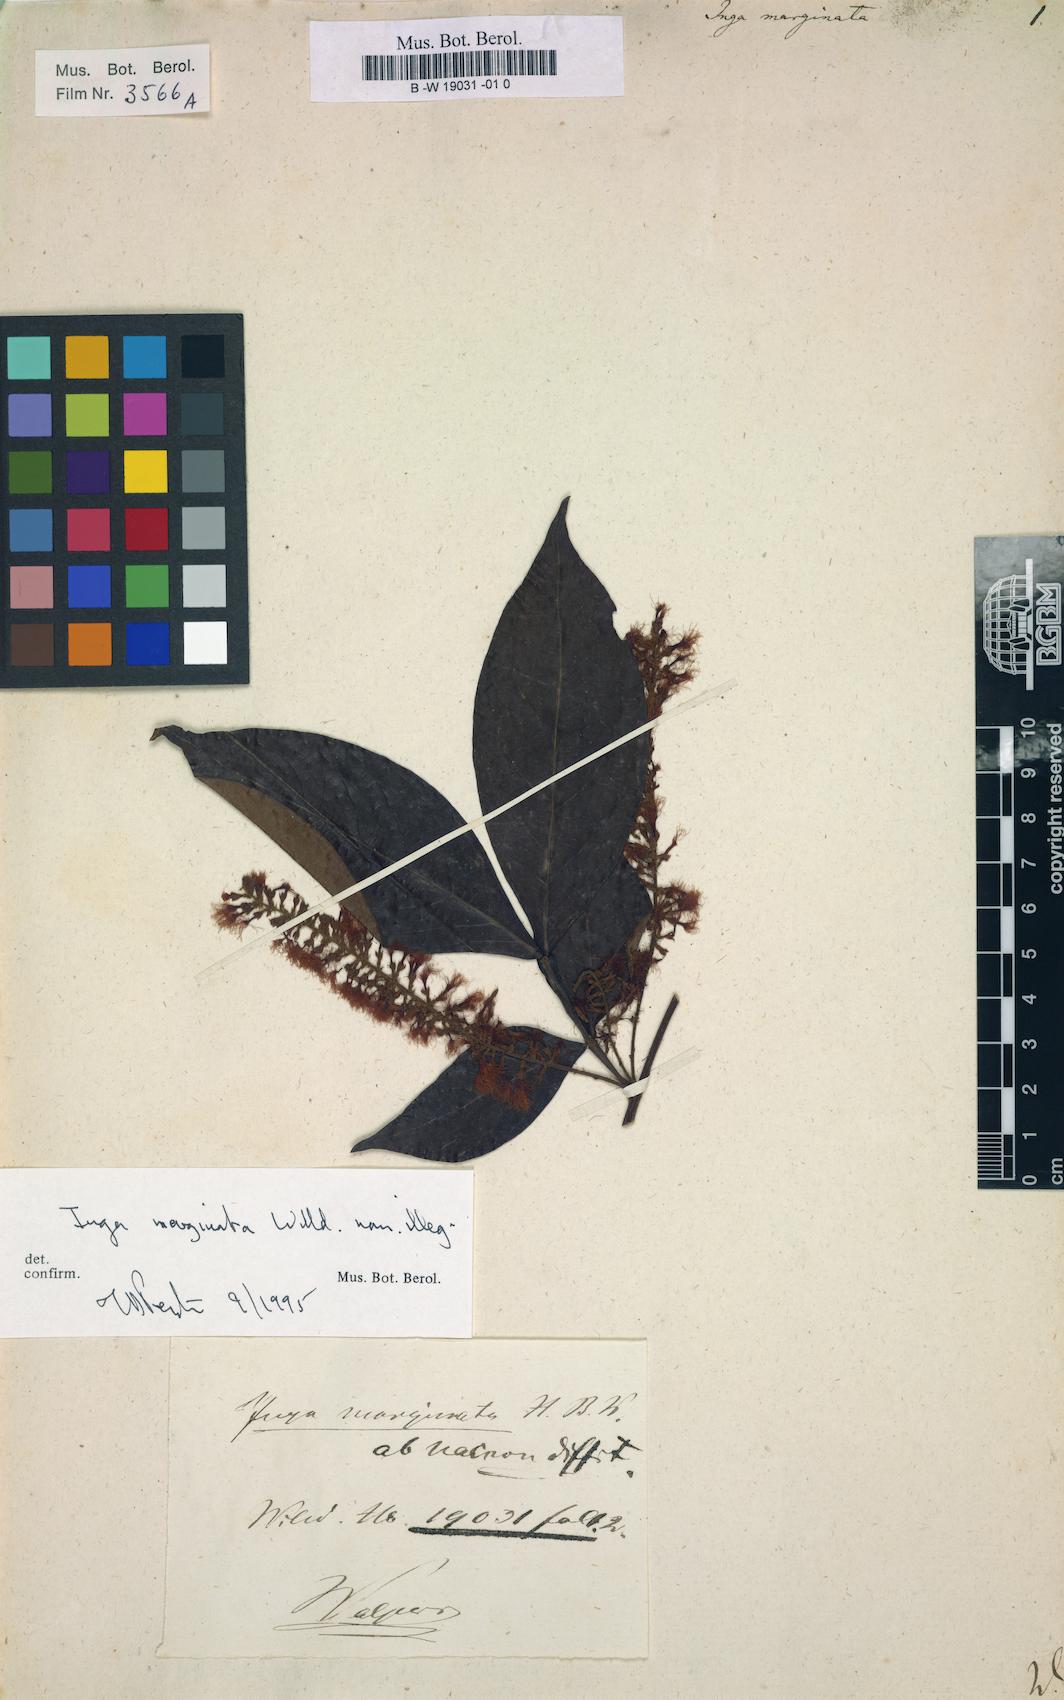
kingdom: Plantae
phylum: Tracheophyta
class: Magnoliopsida
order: Fabales
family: Fabaceae
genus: Inga
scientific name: Inga marginata
